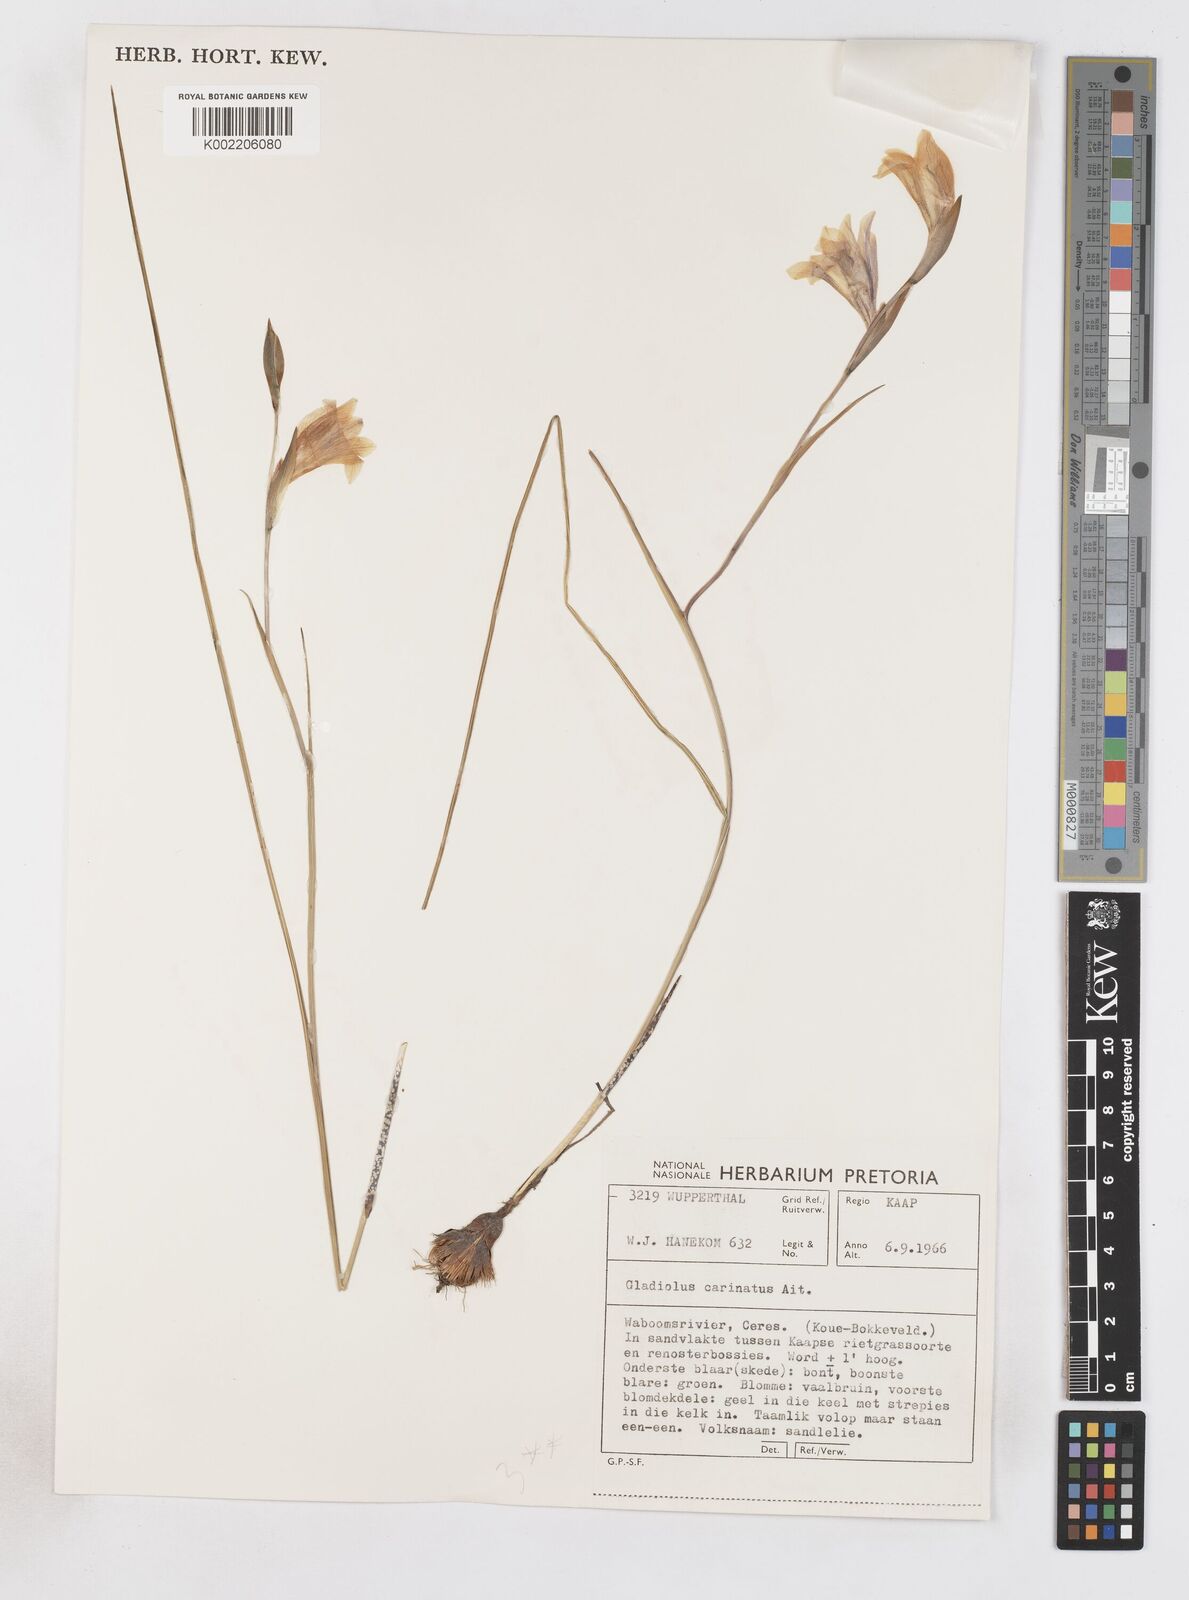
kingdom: Plantae
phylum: Tracheophyta
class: Liliopsida
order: Asparagales
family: Iridaceae
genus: Gladiolus
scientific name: Gladiolus carinatus
